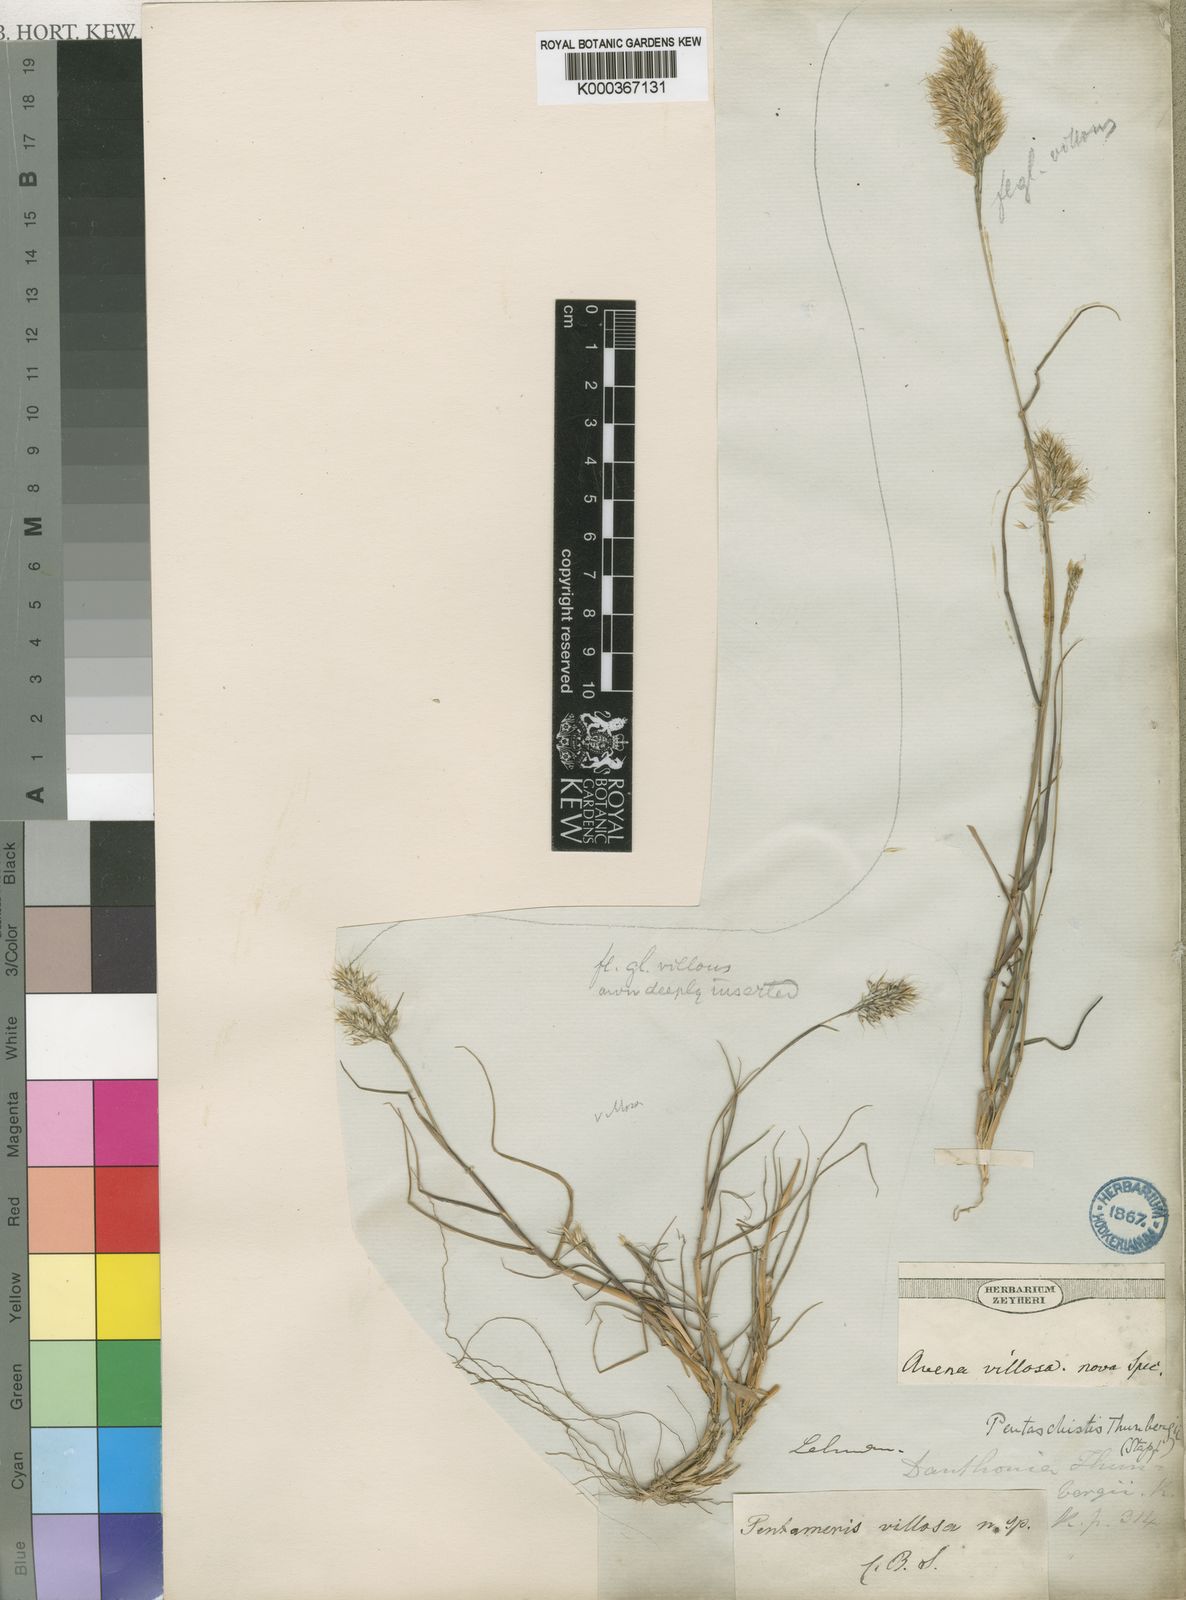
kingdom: Plantae
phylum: Tracheophyta
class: Liliopsida
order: Poales
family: Poaceae
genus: Pentameris
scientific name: Pentameris triseta
